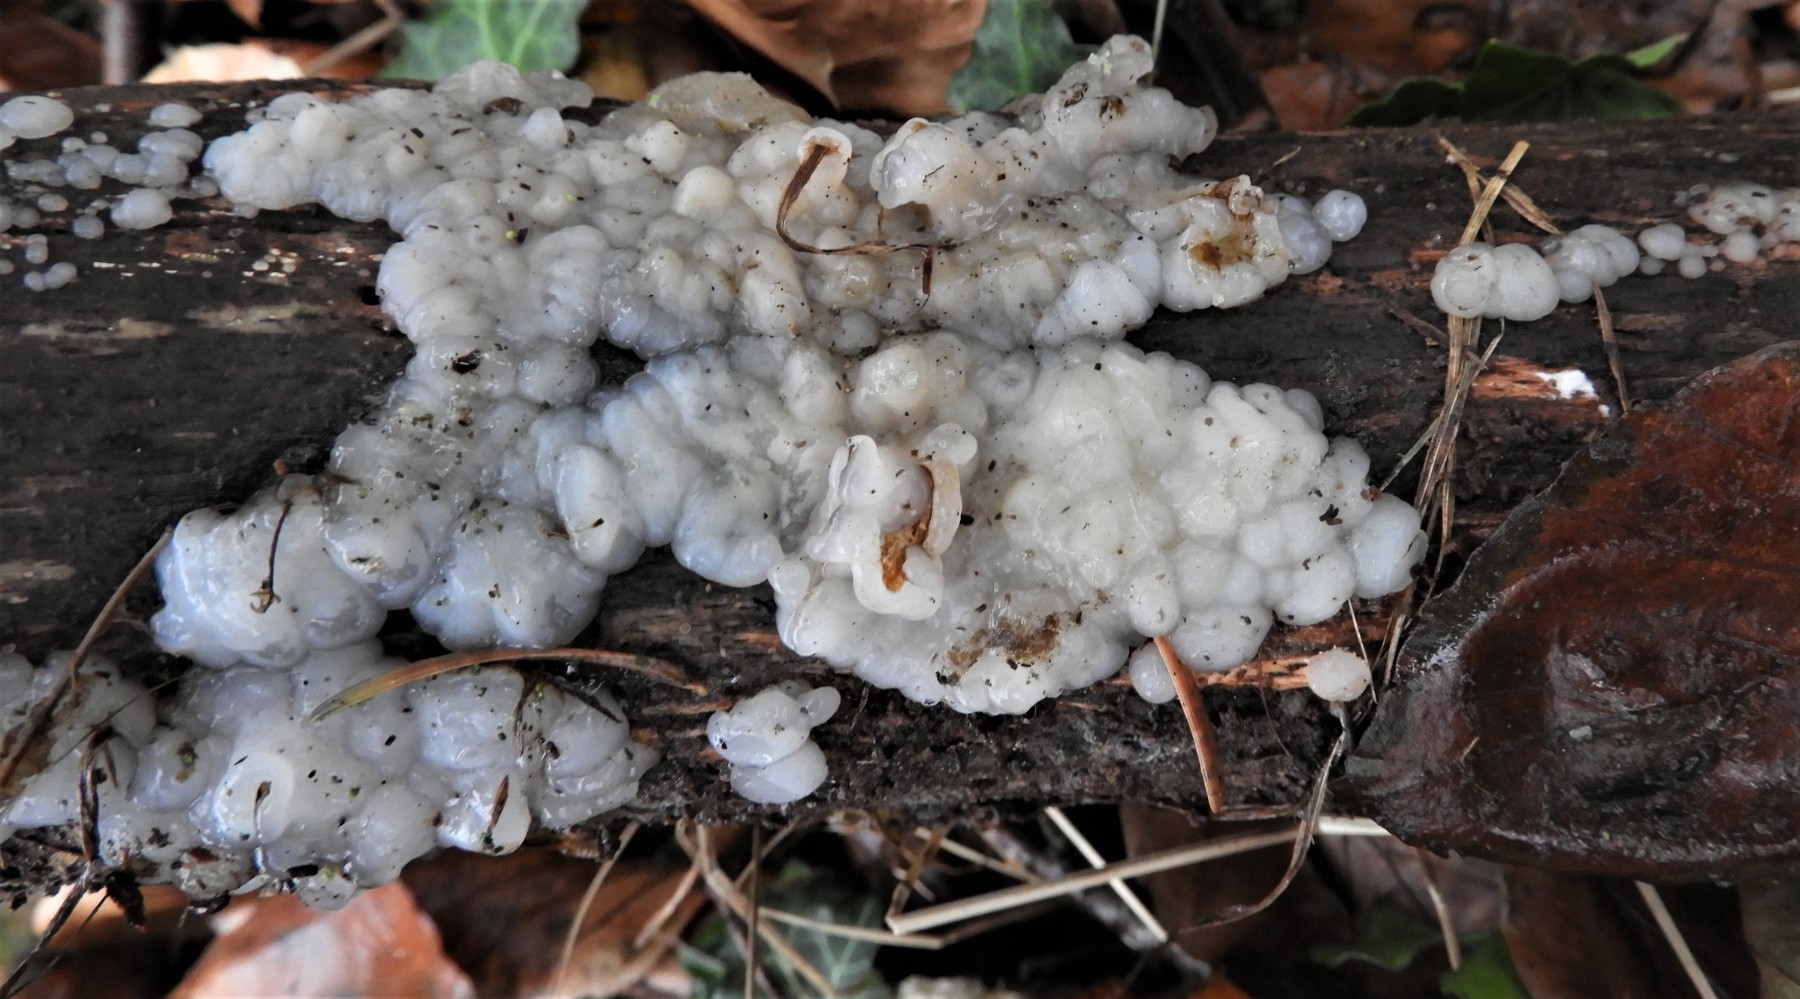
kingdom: Fungi
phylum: Basidiomycota
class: Agaricomycetes
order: Auriculariales
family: Auriculariaceae
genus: Exidia
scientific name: Exidia thuretiana
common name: hvidlig bævretop
